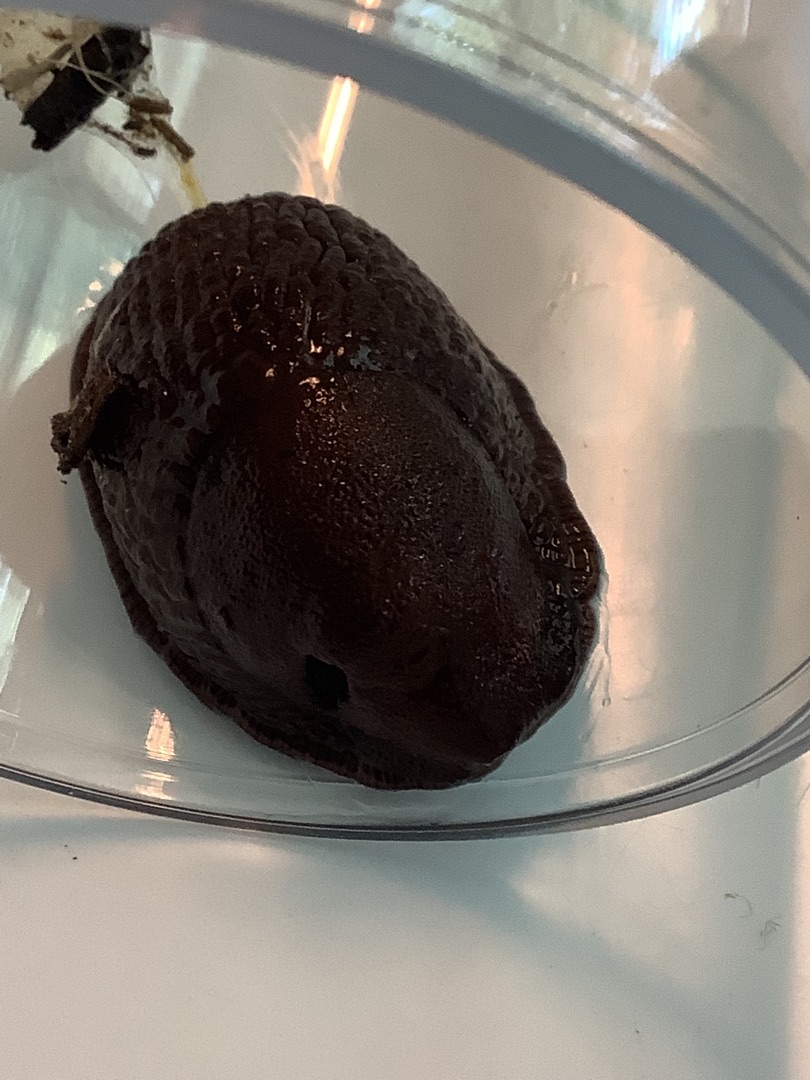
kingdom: Animalia
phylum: Mollusca
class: Gastropoda
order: Stylommatophora
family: Arionidae
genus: Arion
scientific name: Arion vulgaris
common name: Iberisk skovsnegl
